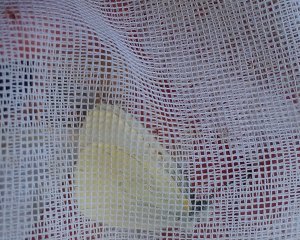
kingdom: Animalia
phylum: Arthropoda
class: Insecta
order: Lepidoptera
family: Pieridae
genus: Pieris
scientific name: Pieris oleracea
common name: Mustard White
